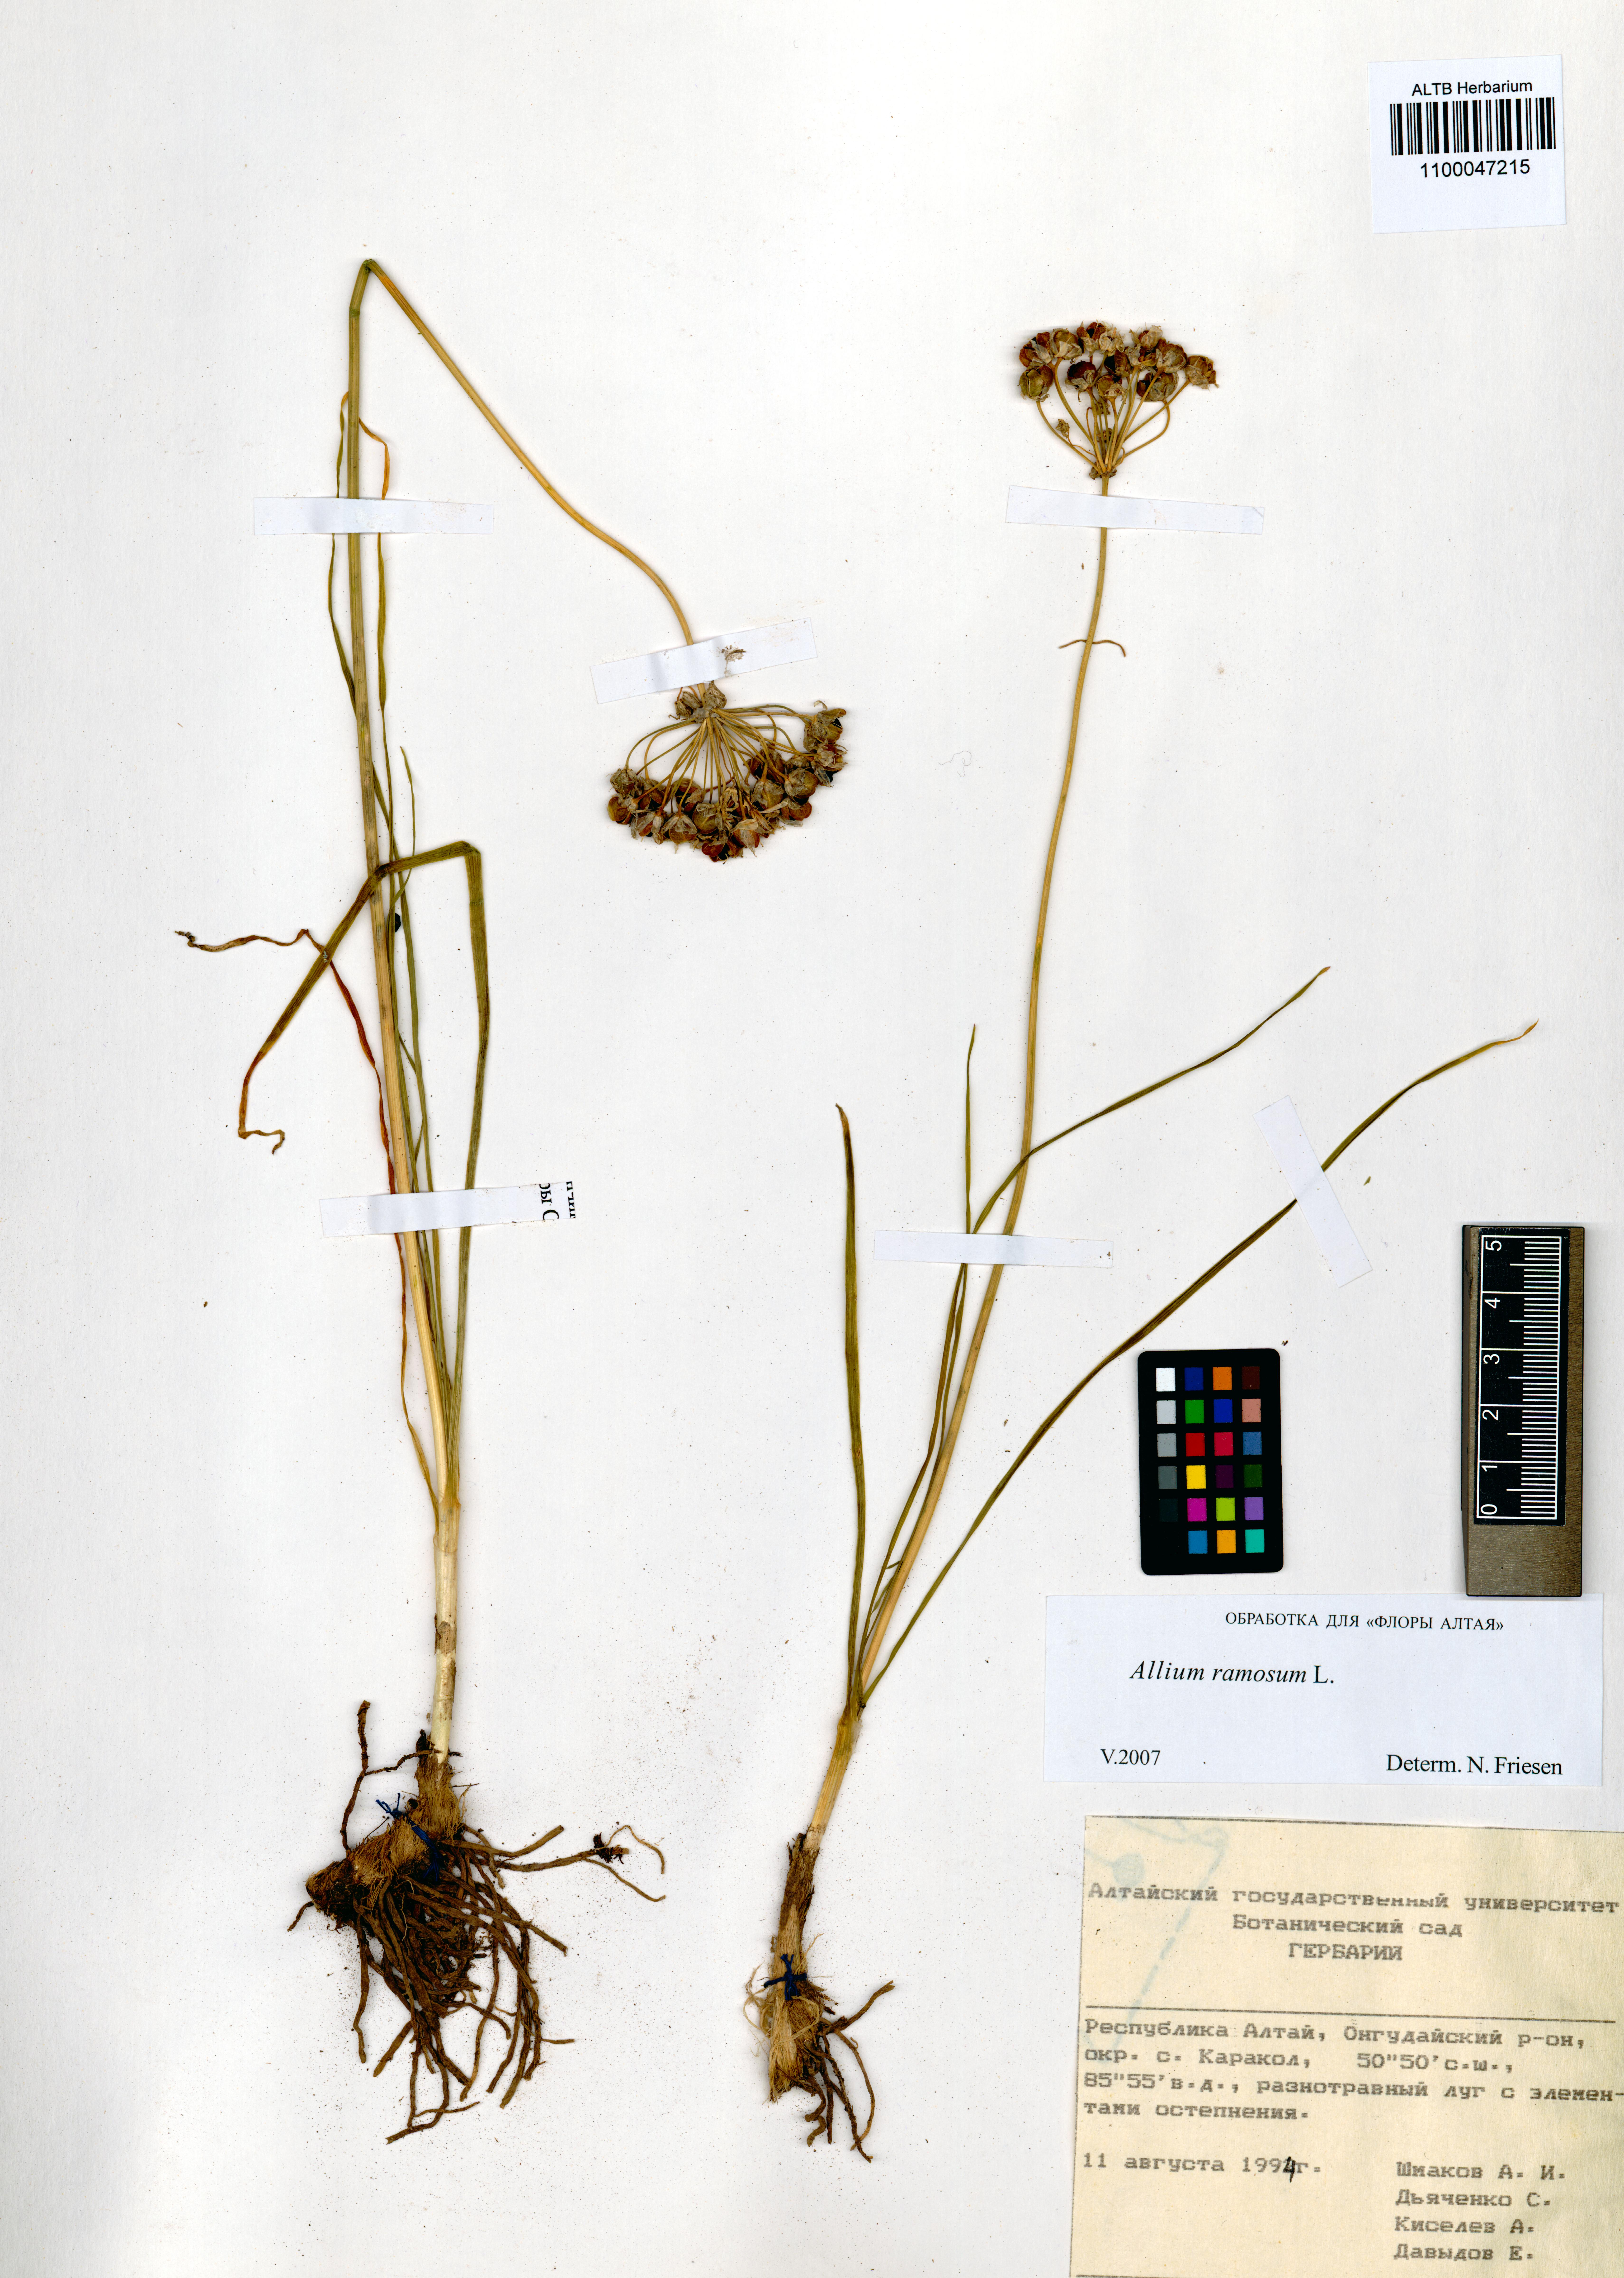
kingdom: Plantae
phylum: Tracheophyta
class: Liliopsida
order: Asparagales
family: Amaryllidaceae
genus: Allium
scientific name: Allium ramosum
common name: Fragrant garlic
